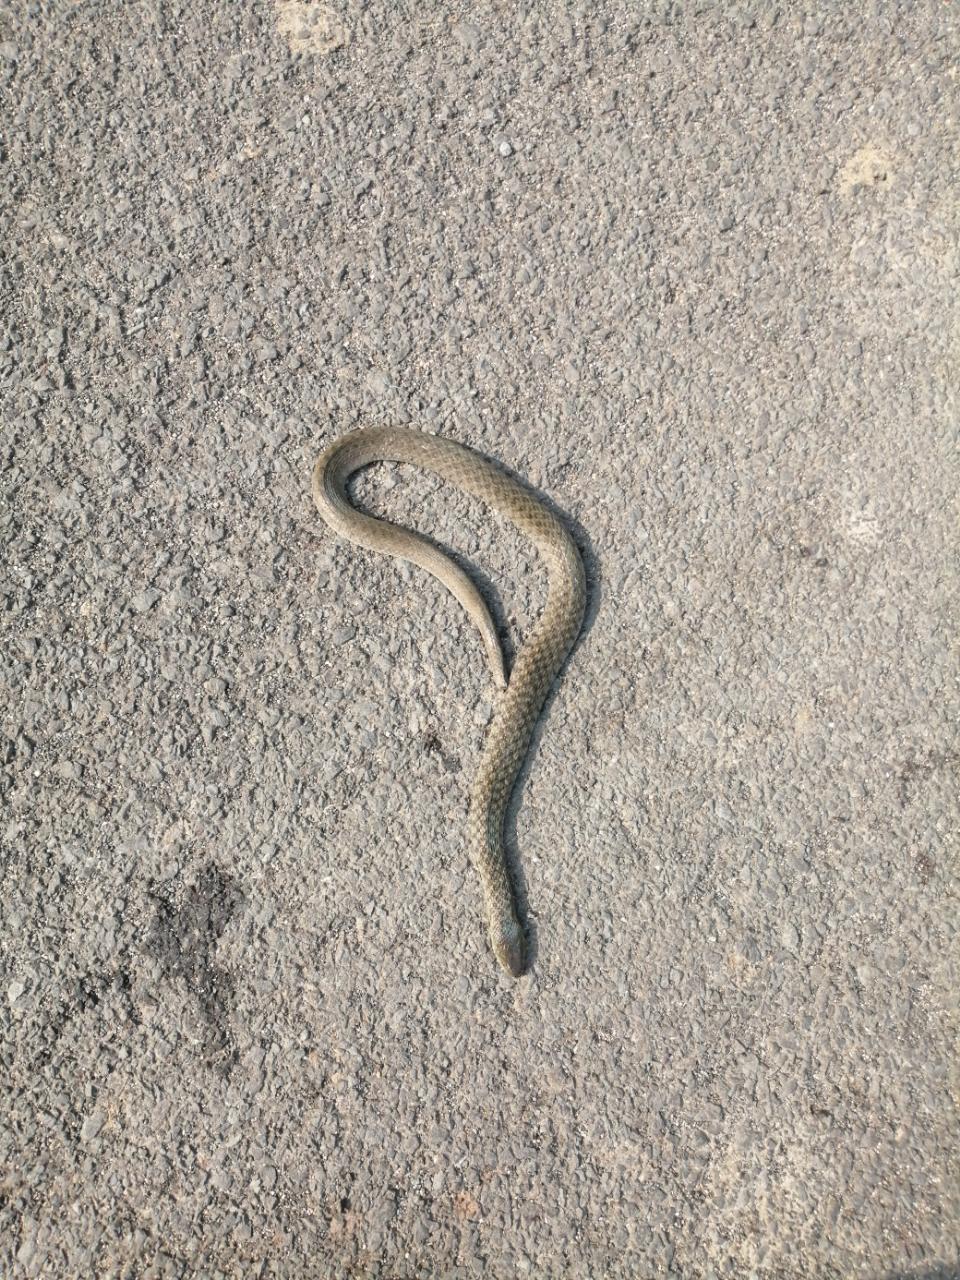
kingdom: Animalia
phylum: Chordata
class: Squamata
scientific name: Squamata
